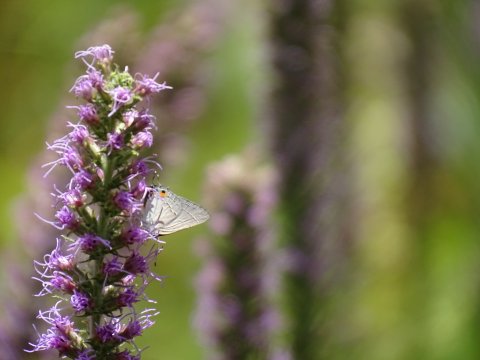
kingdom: Animalia
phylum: Arthropoda
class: Insecta
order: Lepidoptera
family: Lycaenidae
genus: Strymon
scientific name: Strymon melinus
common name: Gray Hairstreak
